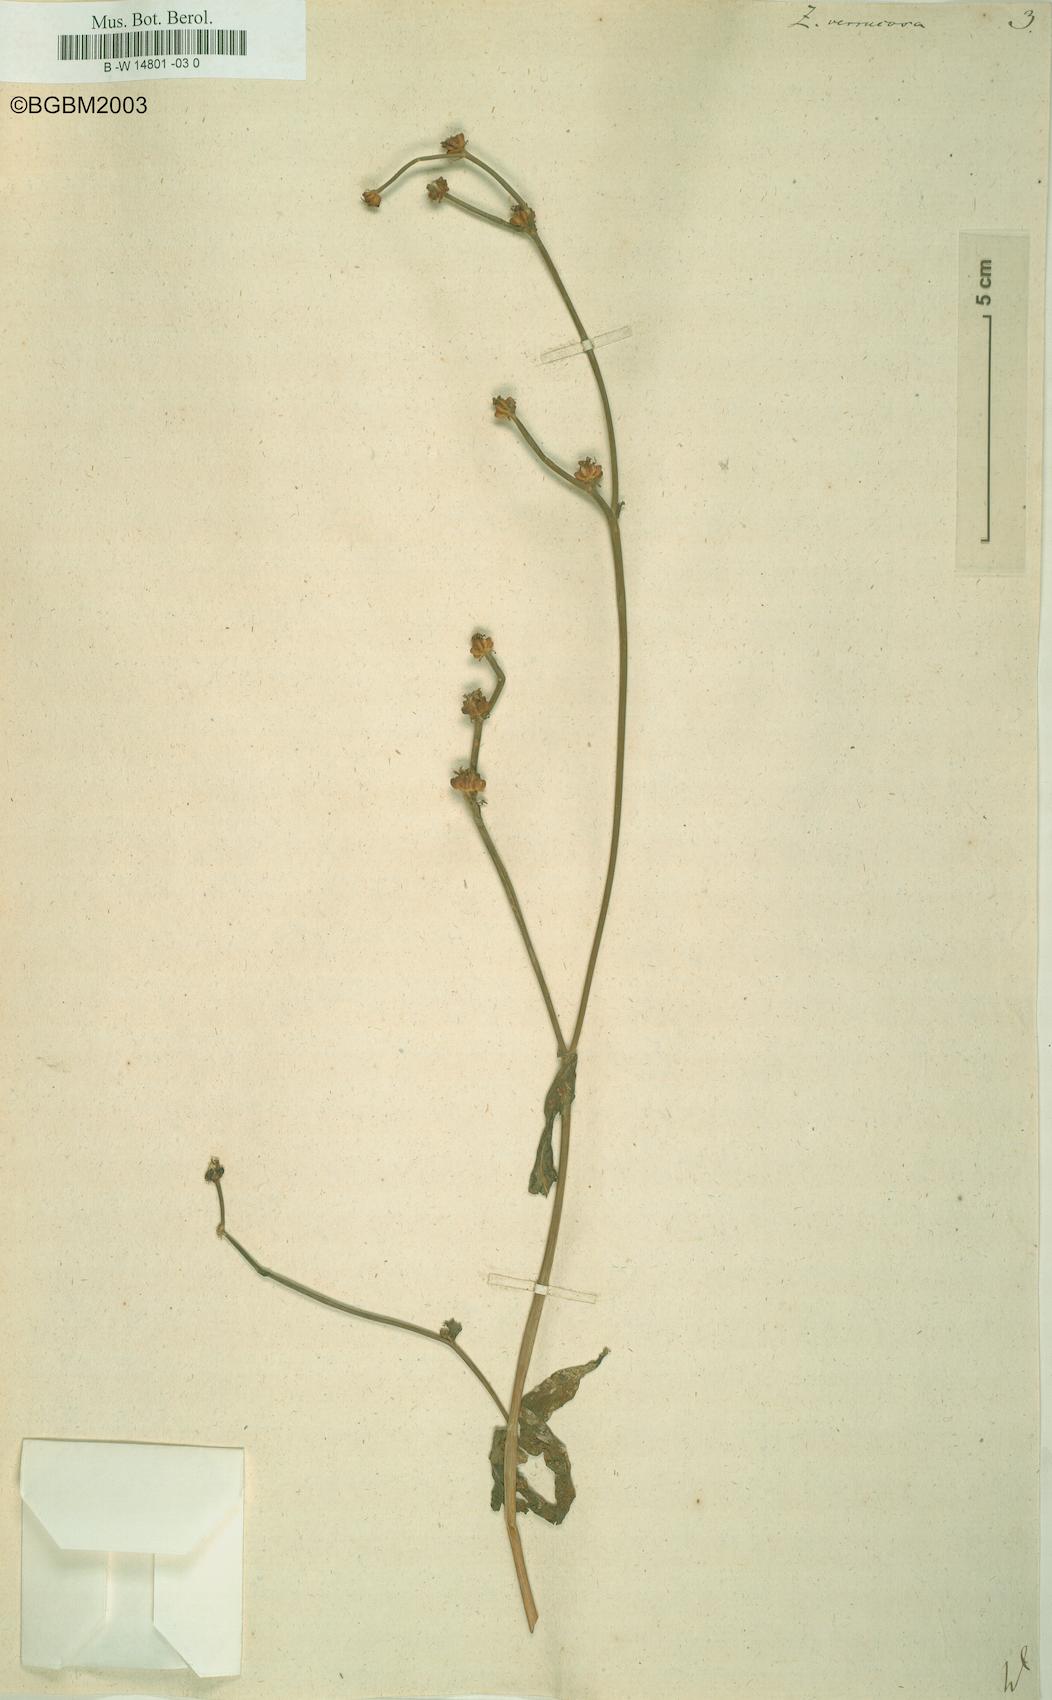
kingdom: Plantae
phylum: Tracheophyta
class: Magnoliopsida
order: Asterales
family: Asteraceae
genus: Crepis
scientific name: Crepis zacintha
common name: Striped hawksbeard
